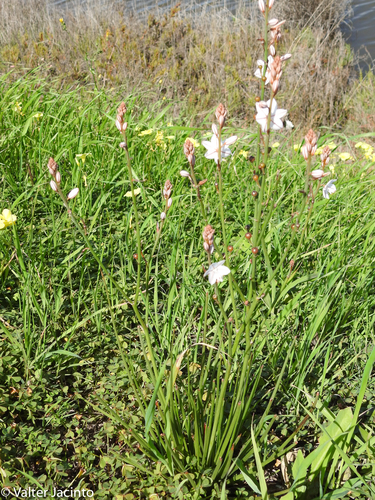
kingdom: Plantae
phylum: Tracheophyta
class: Liliopsida
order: Asparagales
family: Asphodelaceae
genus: Asphodelus
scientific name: Asphodelus fistulosus
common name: Onionweed
